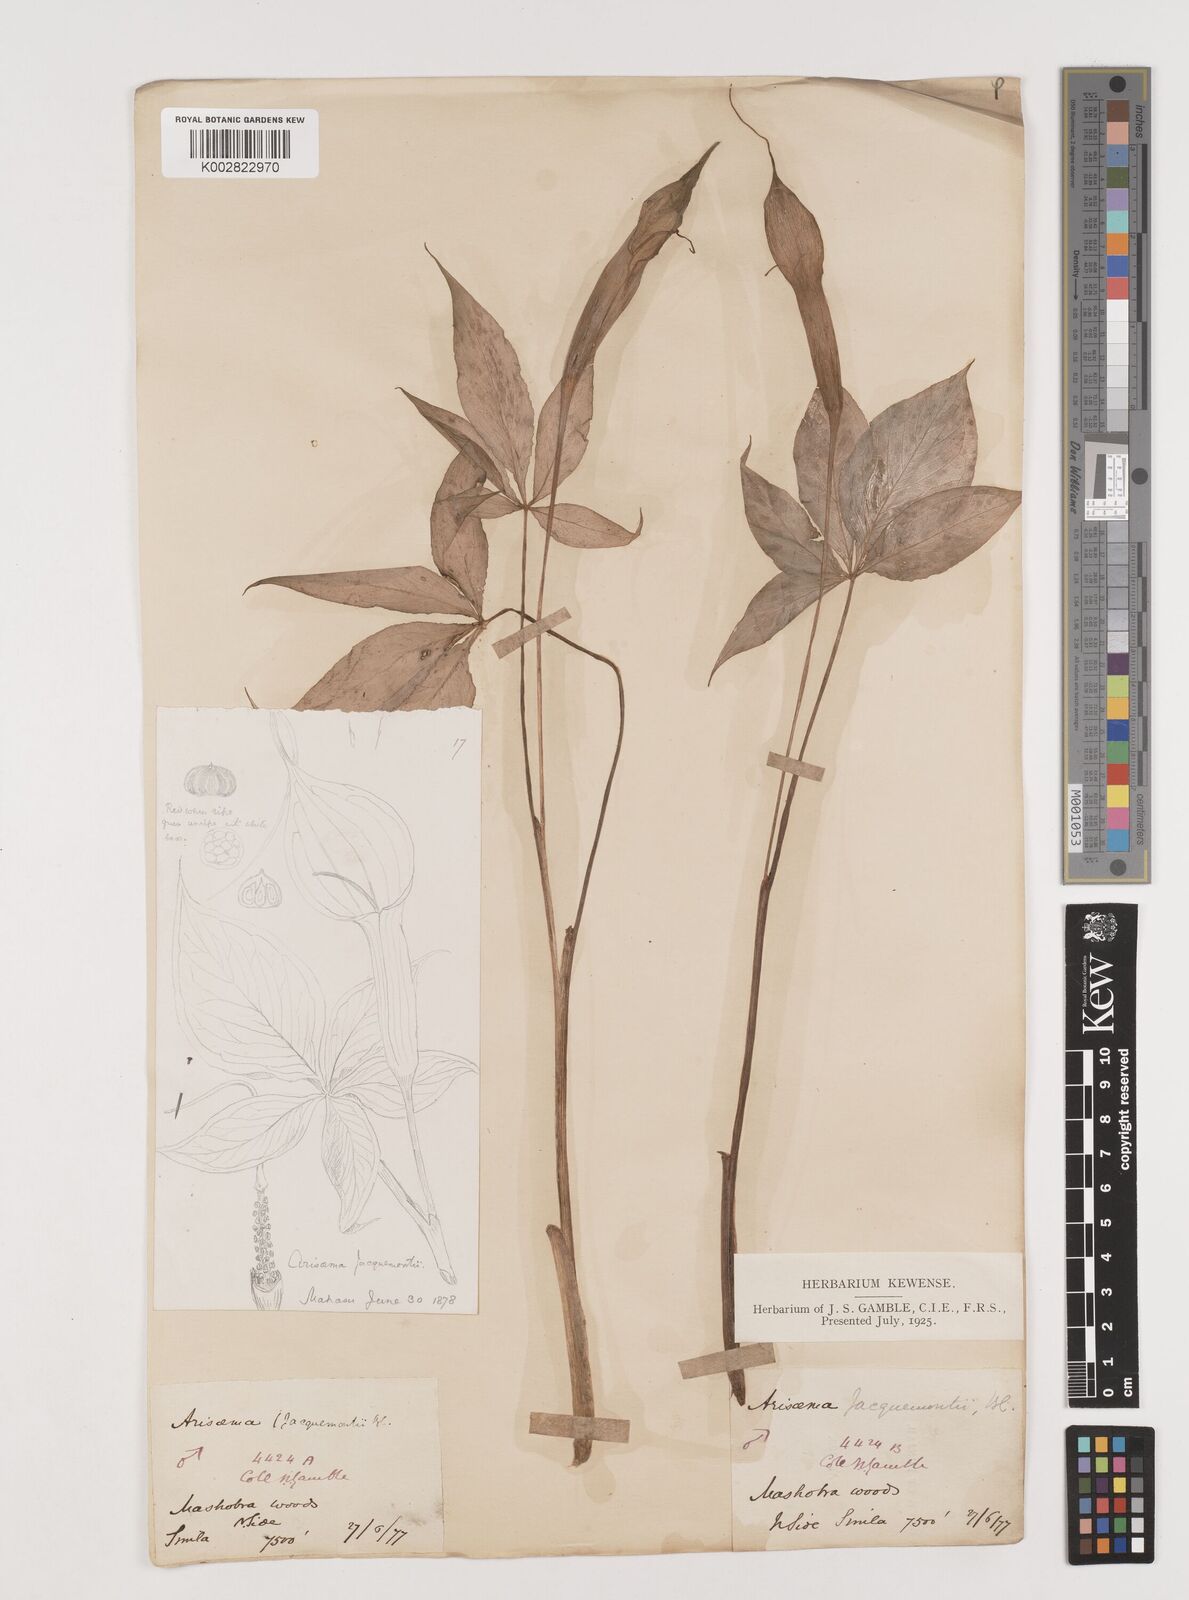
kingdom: Plantae
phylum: Tracheophyta
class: Liliopsida
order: Alismatales
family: Araceae
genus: Arisaema
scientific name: Arisaema jacquemontii
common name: Jacquemont's cobra-lily
